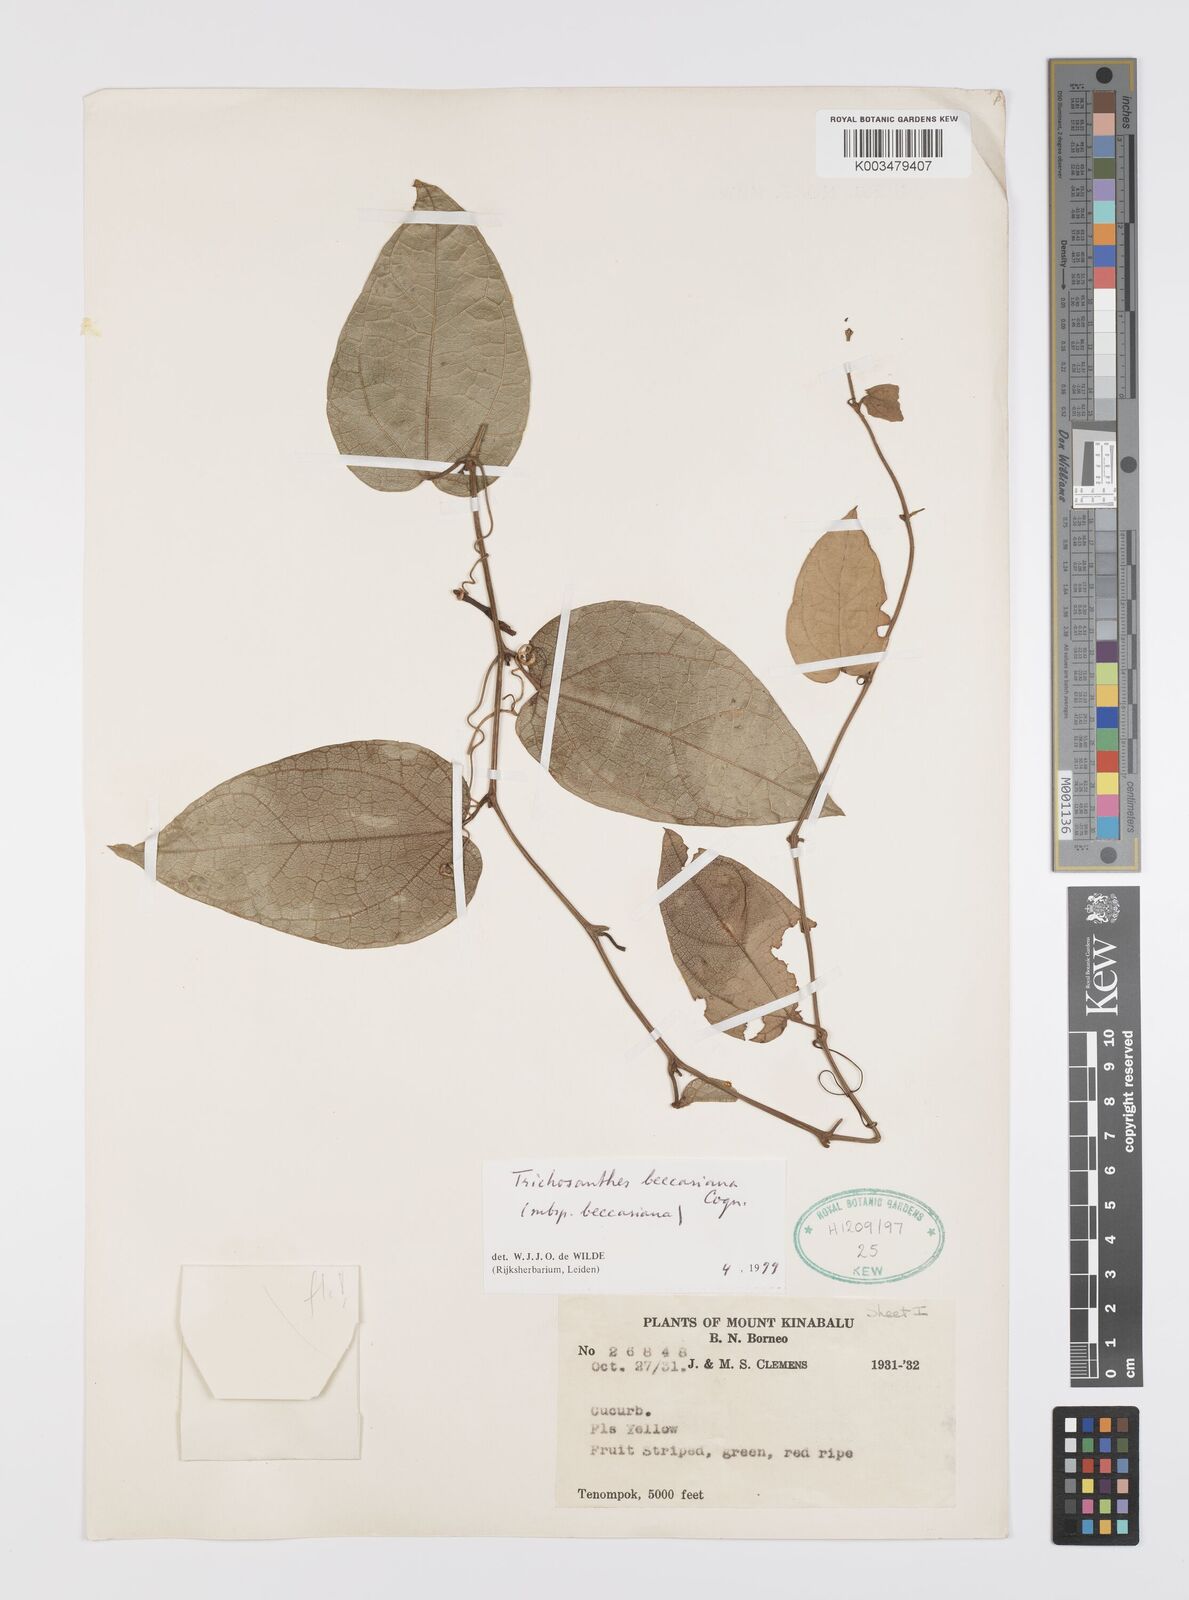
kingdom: Plantae
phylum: Tracheophyta
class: Magnoliopsida
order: Cucurbitales
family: Cucurbitaceae
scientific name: Cucurbitaceae
